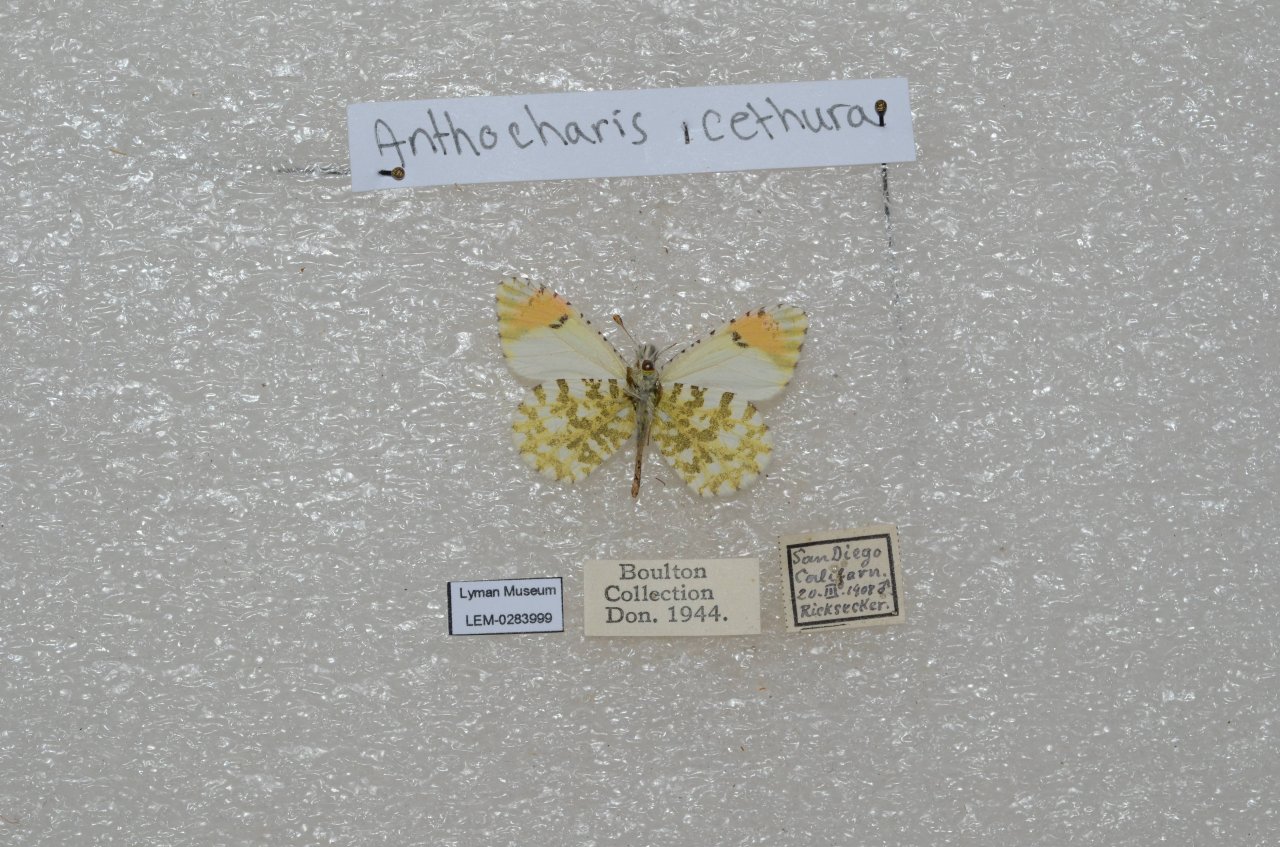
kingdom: Animalia
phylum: Arthropoda
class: Insecta
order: Lepidoptera
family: Pieridae
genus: Anthocharis
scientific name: Anthocharis cethura
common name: Desert Orangetip
